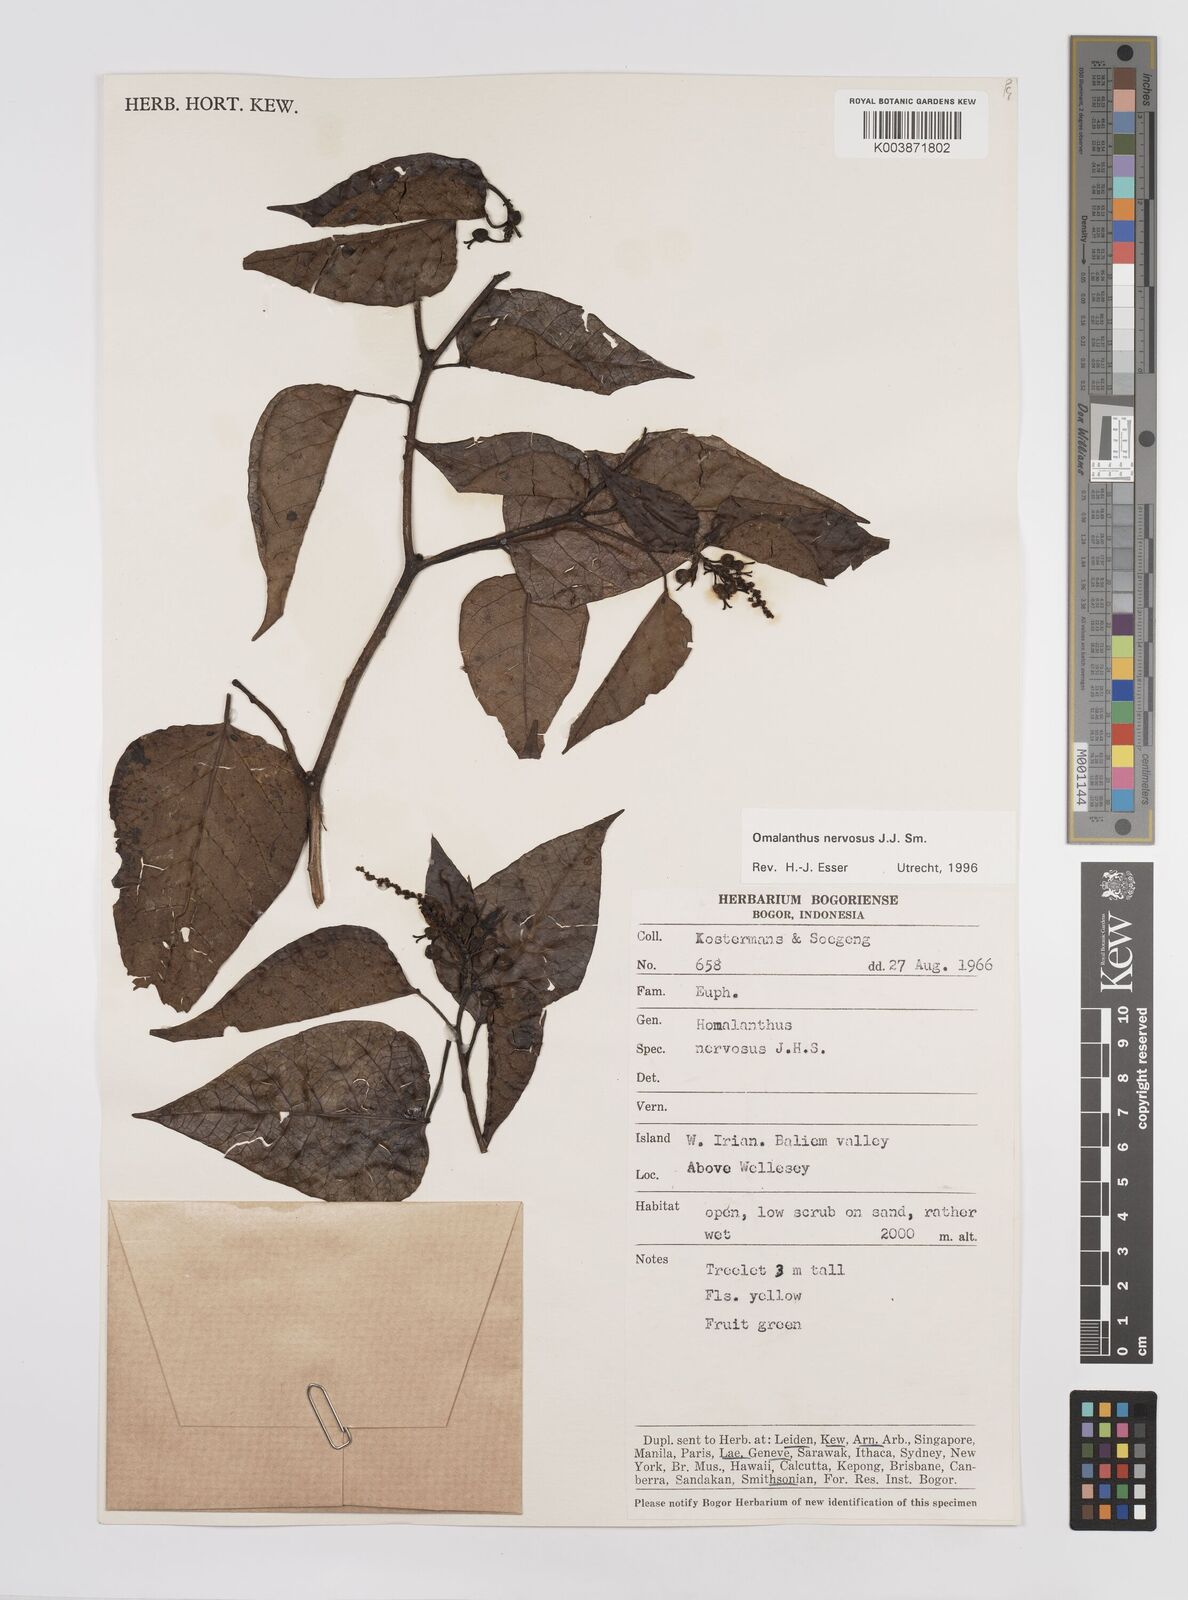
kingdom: Plantae
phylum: Tracheophyta
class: Magnoliopsida
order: Malpighiales
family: Euphorbiaceae
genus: Homalanthus
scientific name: Homalanthus nervosus
